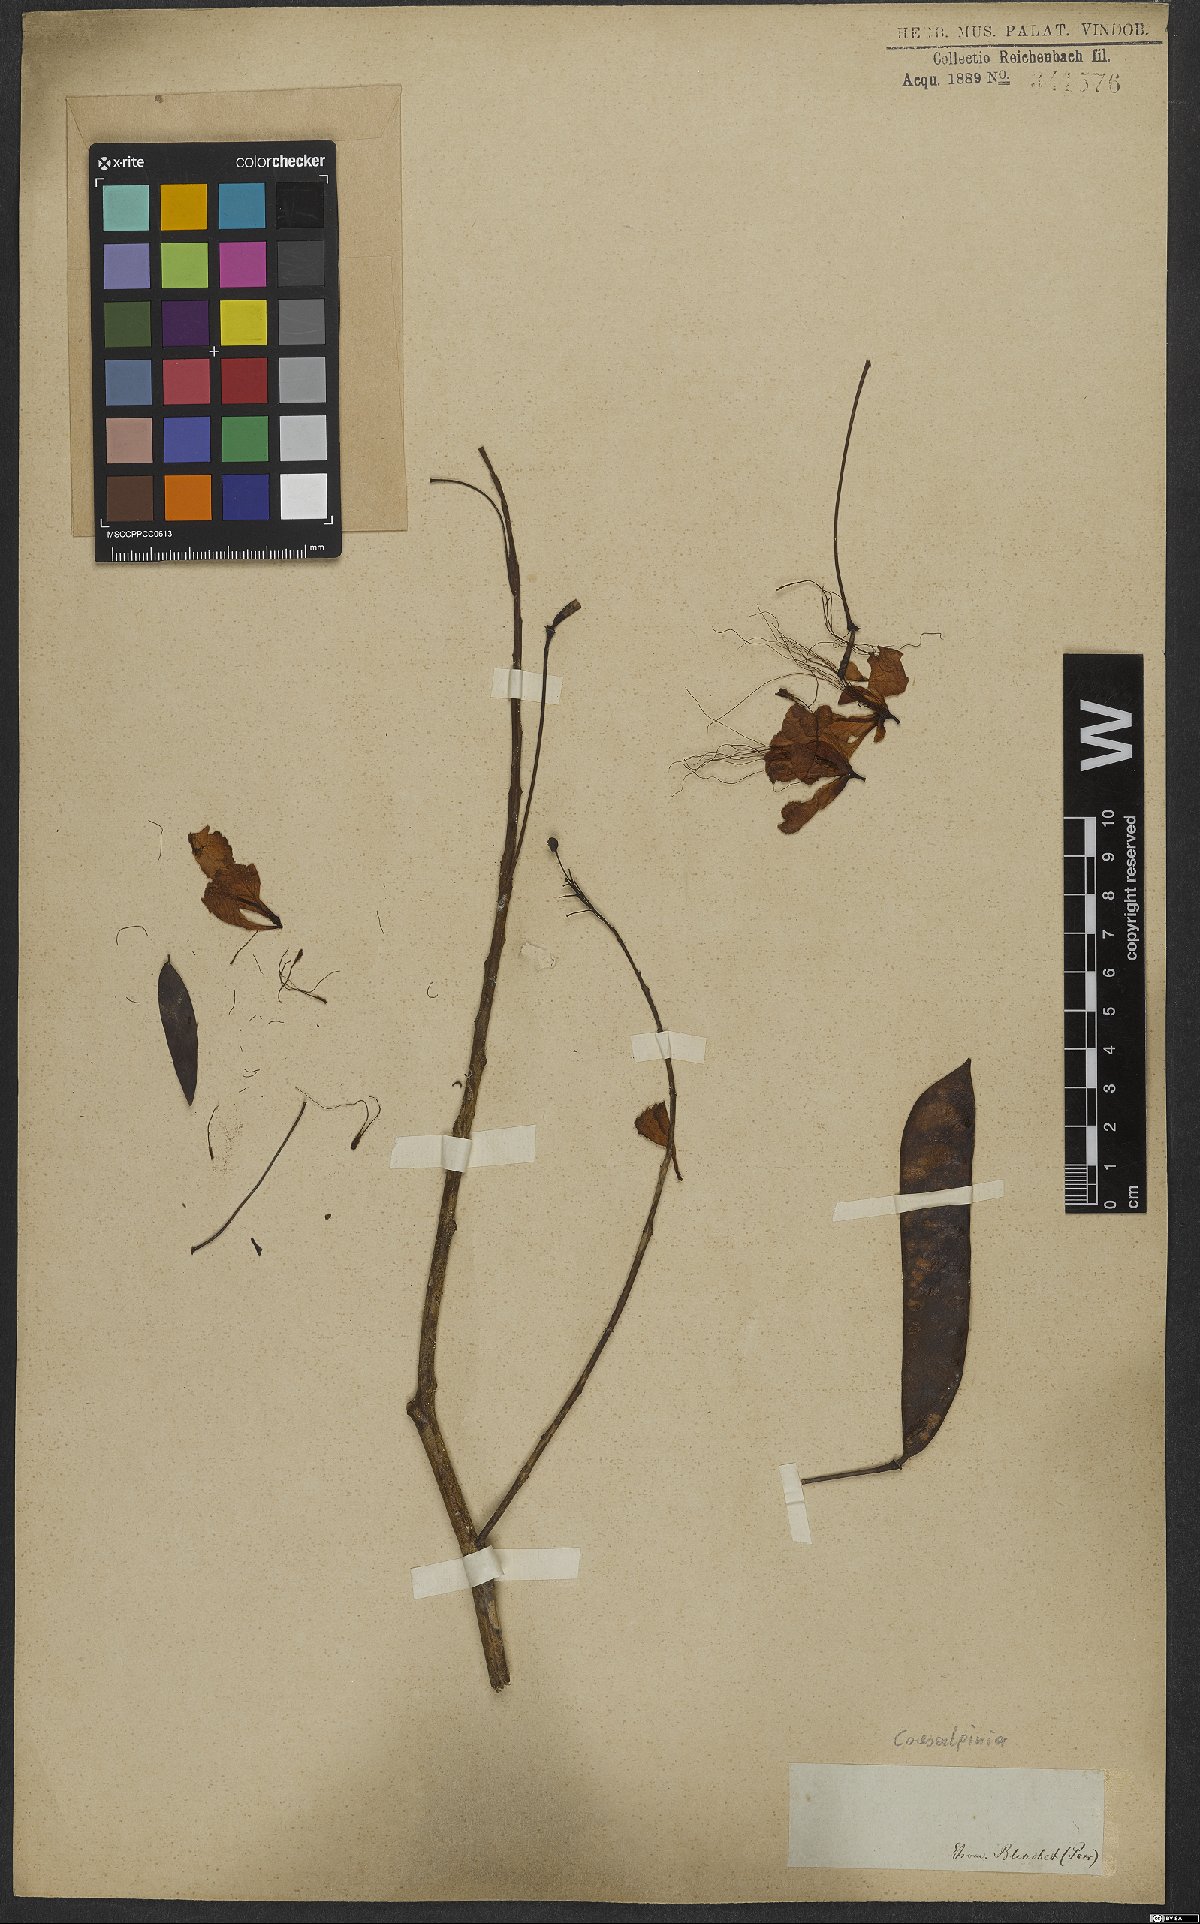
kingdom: Plantae
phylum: Tracheophyta
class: Magnoliopsida
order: Fabales
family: Fabaceae
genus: Caesalpinia
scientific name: Caesalpinia
